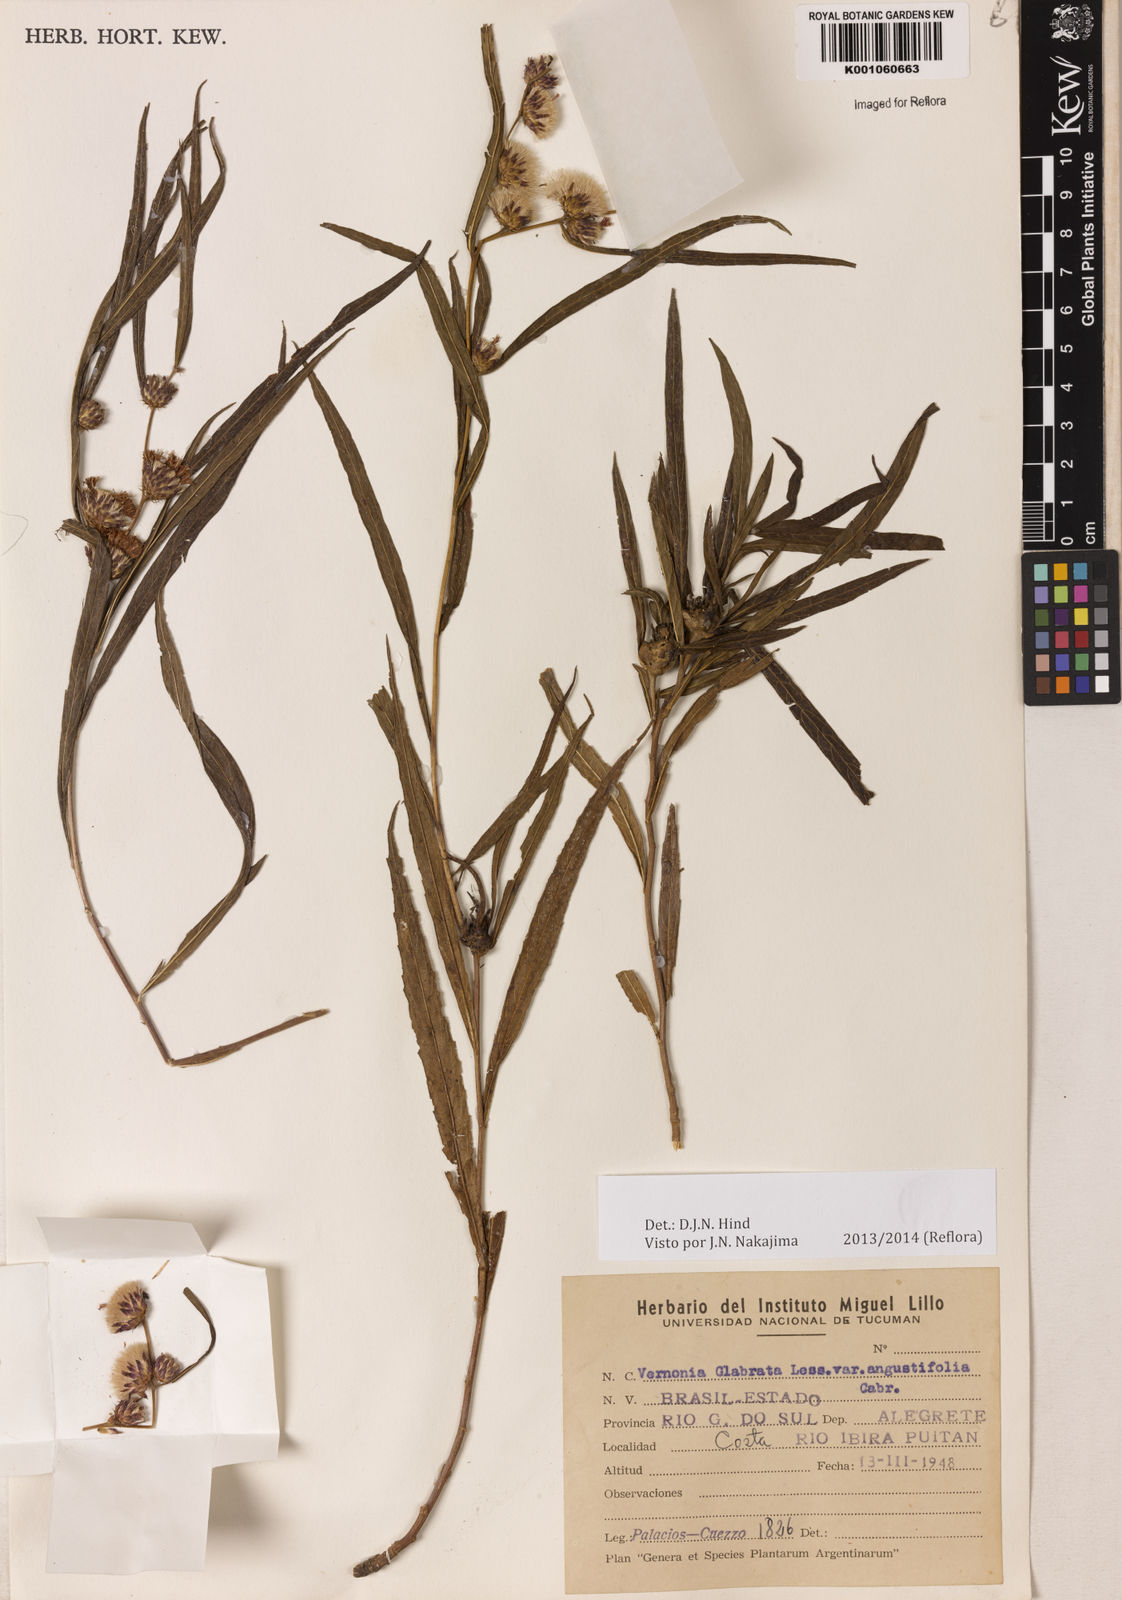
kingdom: Plantae
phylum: Tracheophyta
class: Magnoliopsida
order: Asterales
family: Asteraceae
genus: Lessingianthus
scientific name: Lessingianthus glabratus
